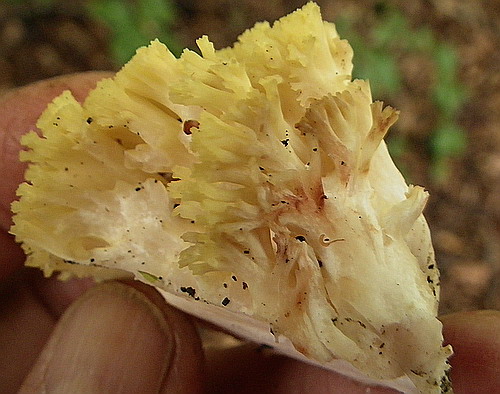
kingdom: Fungi
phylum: Basidiomycota
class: Agaricomycetes
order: Gomphales
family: Gomphaceae
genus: Ramaria
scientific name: Ramaria sanguinea
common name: blodplettet koralsvamp
